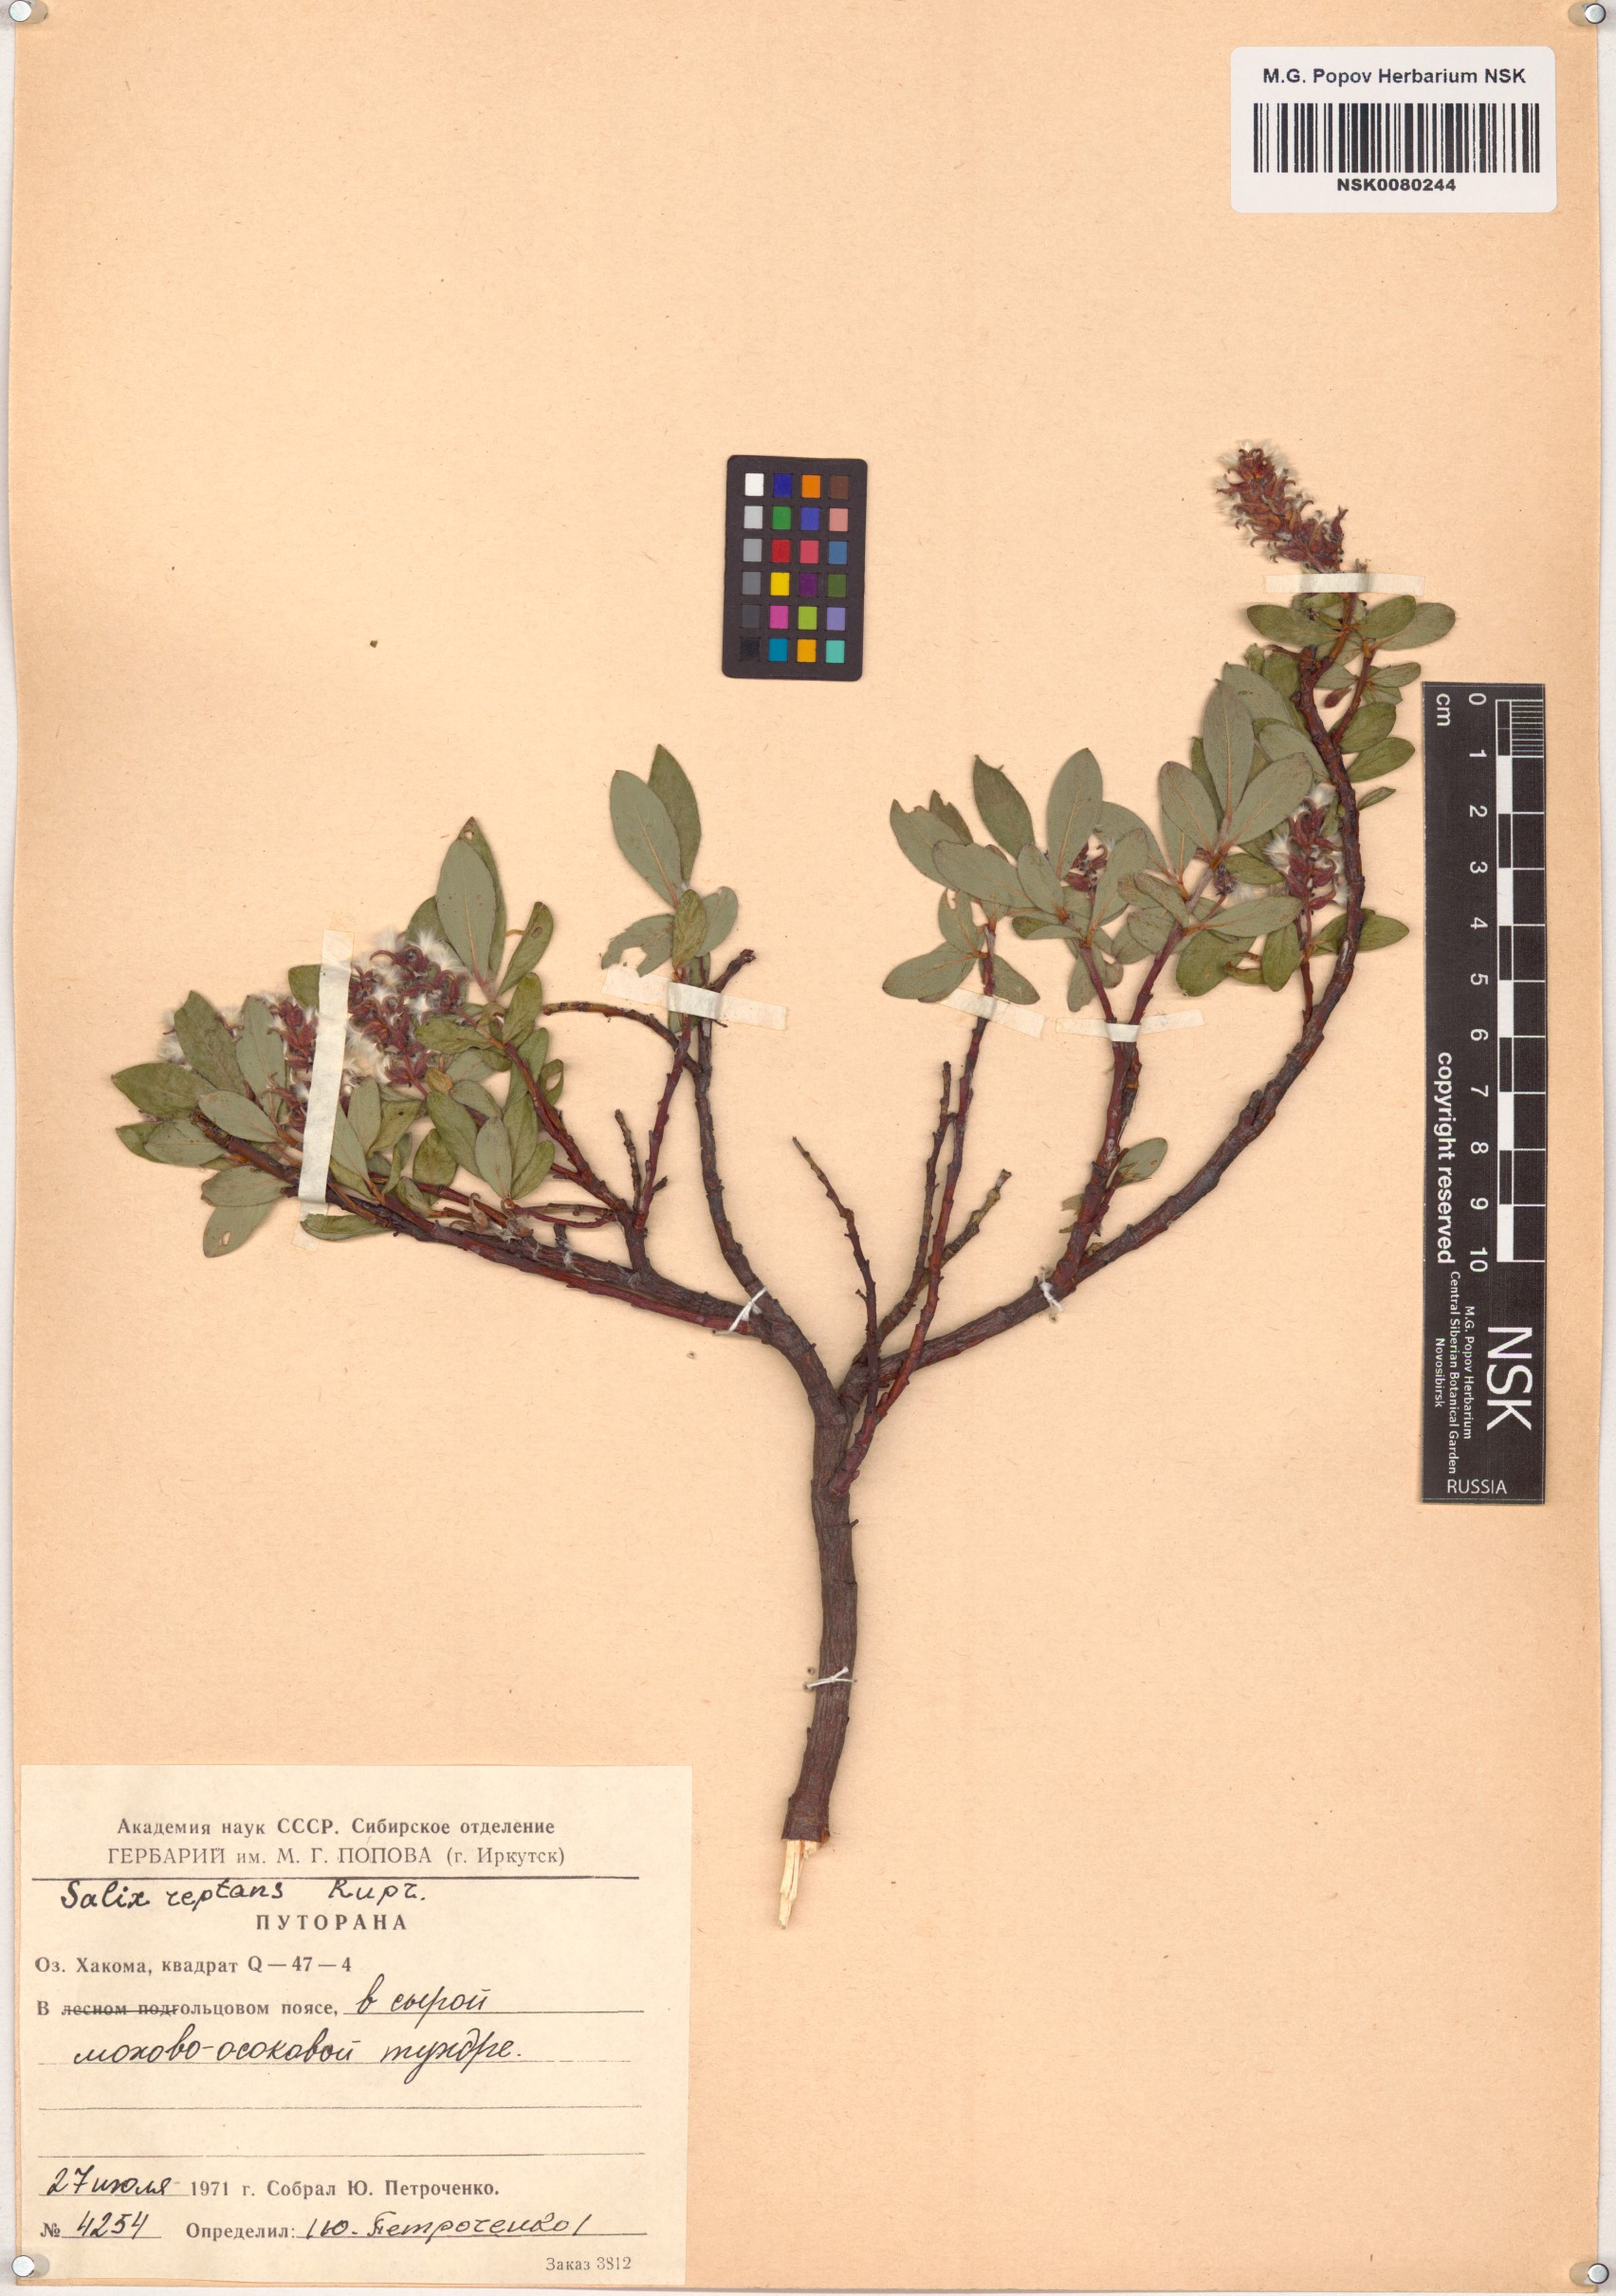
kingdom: Plantae
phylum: Tracheophyta
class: Magnoliopsida
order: Malpighiales
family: Salicaceae
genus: Salix
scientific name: Salix reptans
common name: Arctic creeping willow
